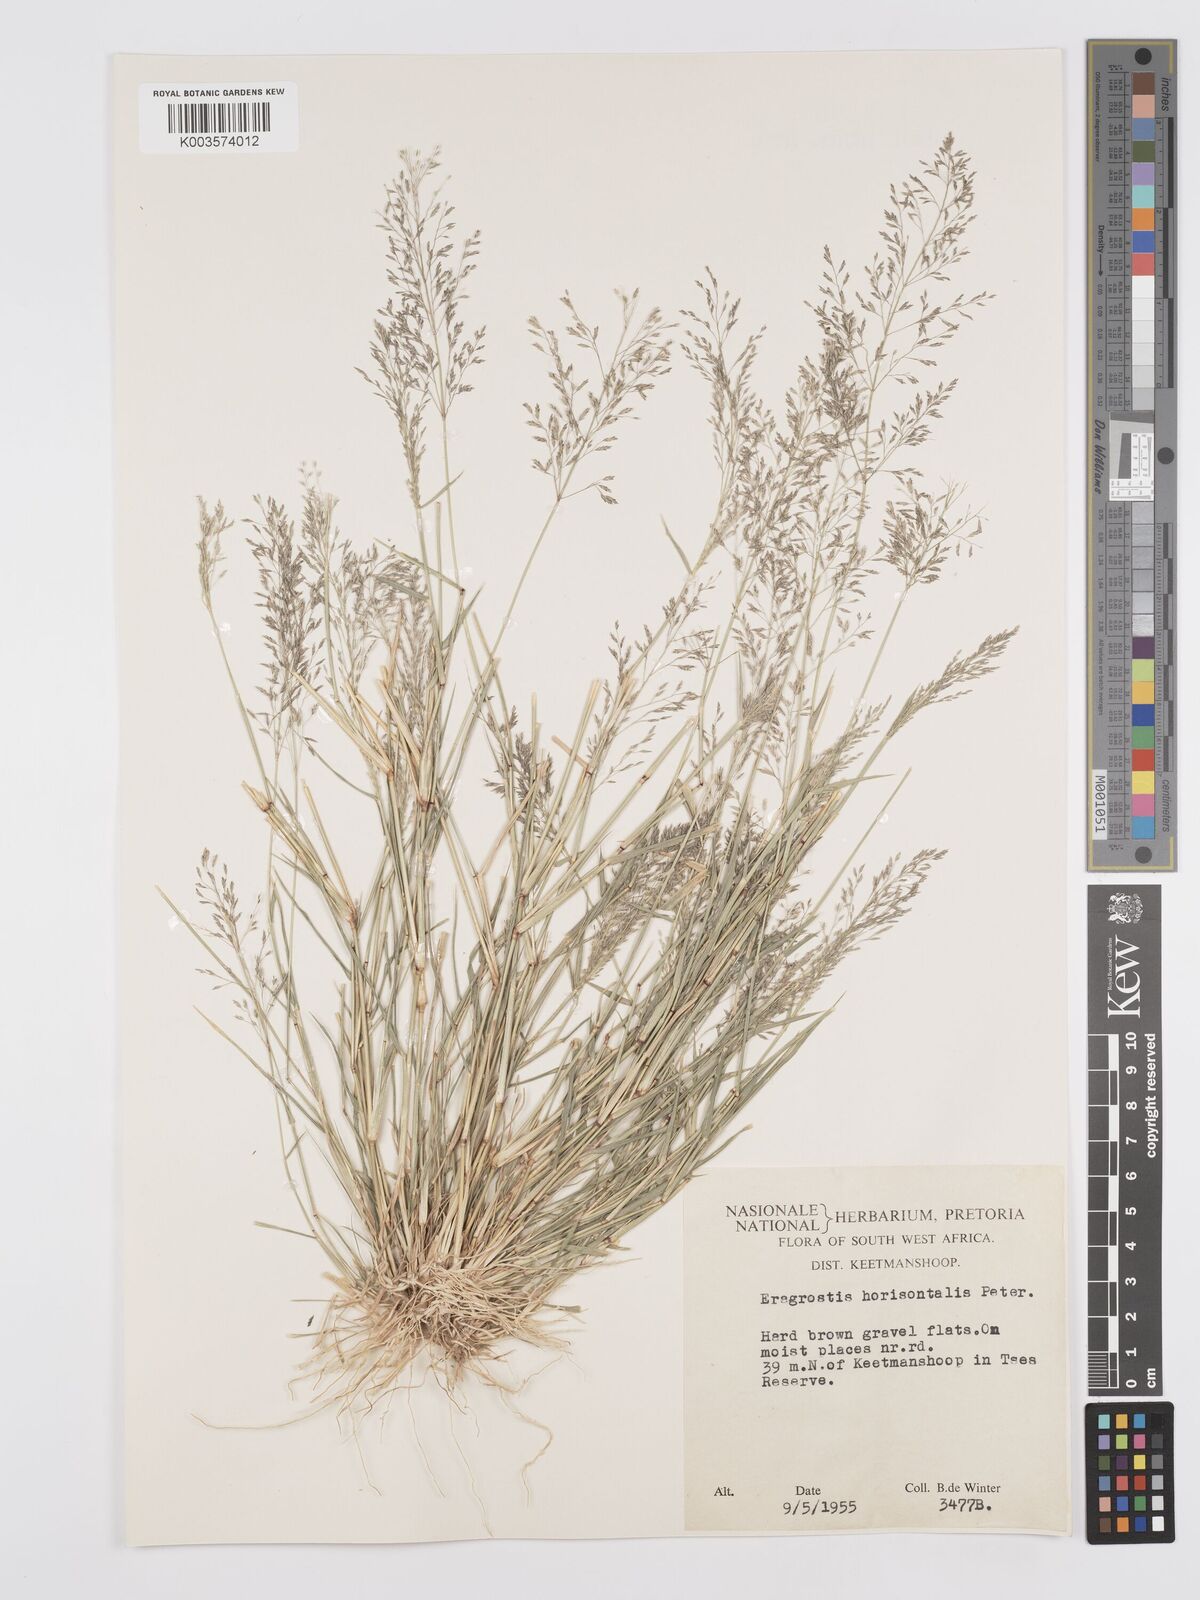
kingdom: Plantae
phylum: Tracheophyta
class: Liliopsida
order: Poales
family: Poaceae
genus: Eragrostis
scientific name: Eragrostis cylindriflora
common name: Cylinderflower lovegrass
